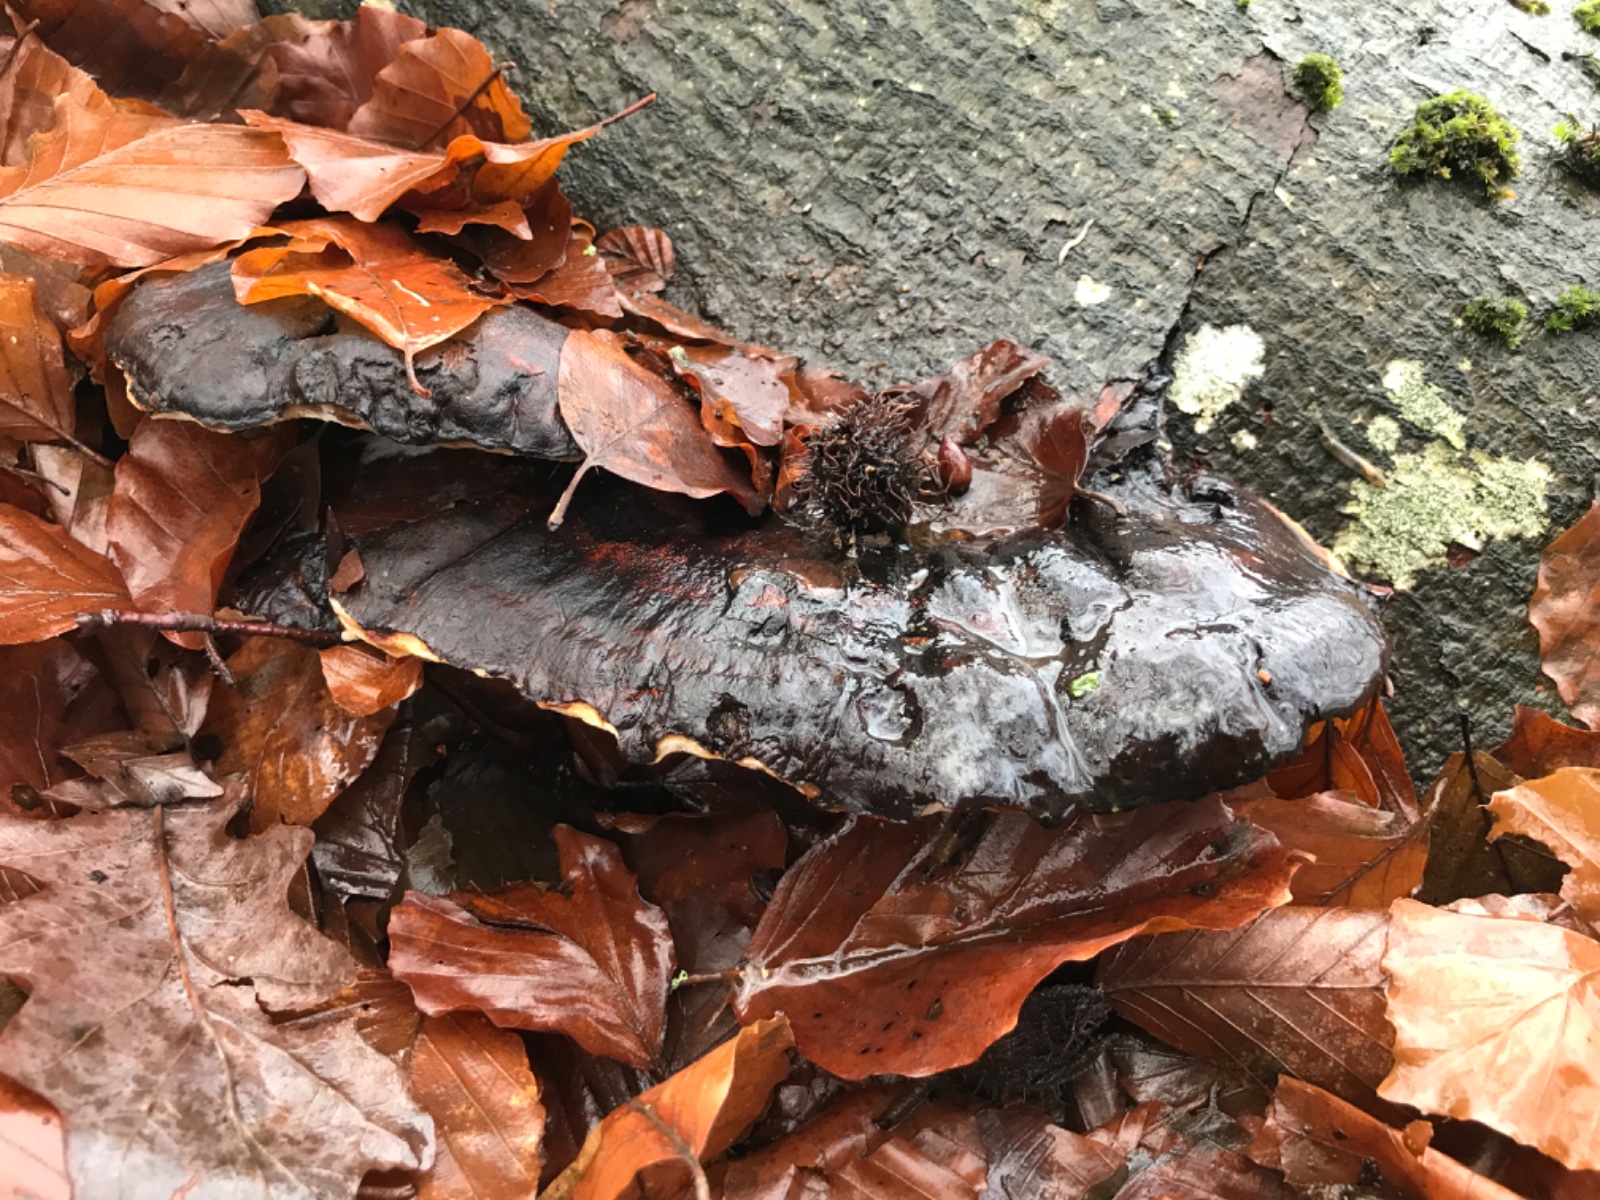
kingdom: Fungi
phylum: Basidiomycota
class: Agaricomycetes
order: Polyporales
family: Ischnodermataceae
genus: Ischnoderma
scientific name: Ischnoderma resinosum
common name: løv-tjæreporesvamp
